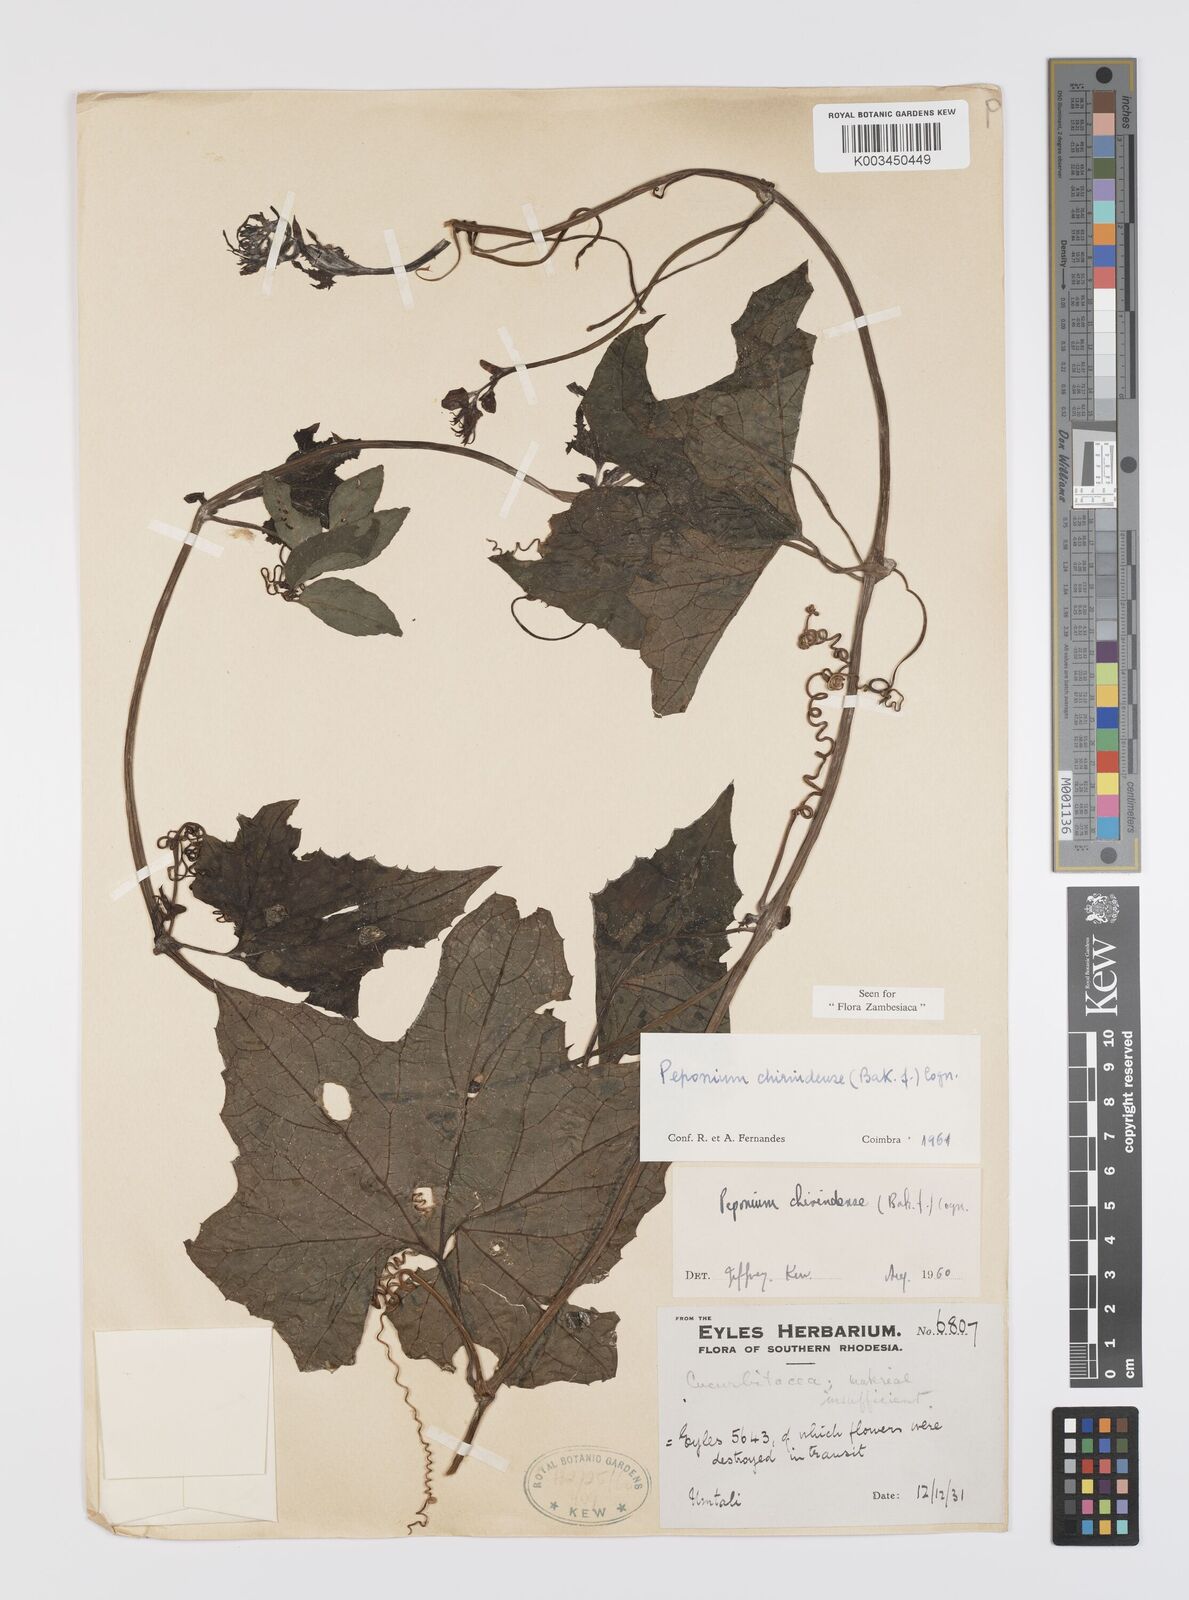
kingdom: Plantae
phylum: Tracheophyta
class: Magnoliopsida
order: Cucurbitales
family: Cucurbitaceae
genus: Peponium
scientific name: Peponium chirindense
